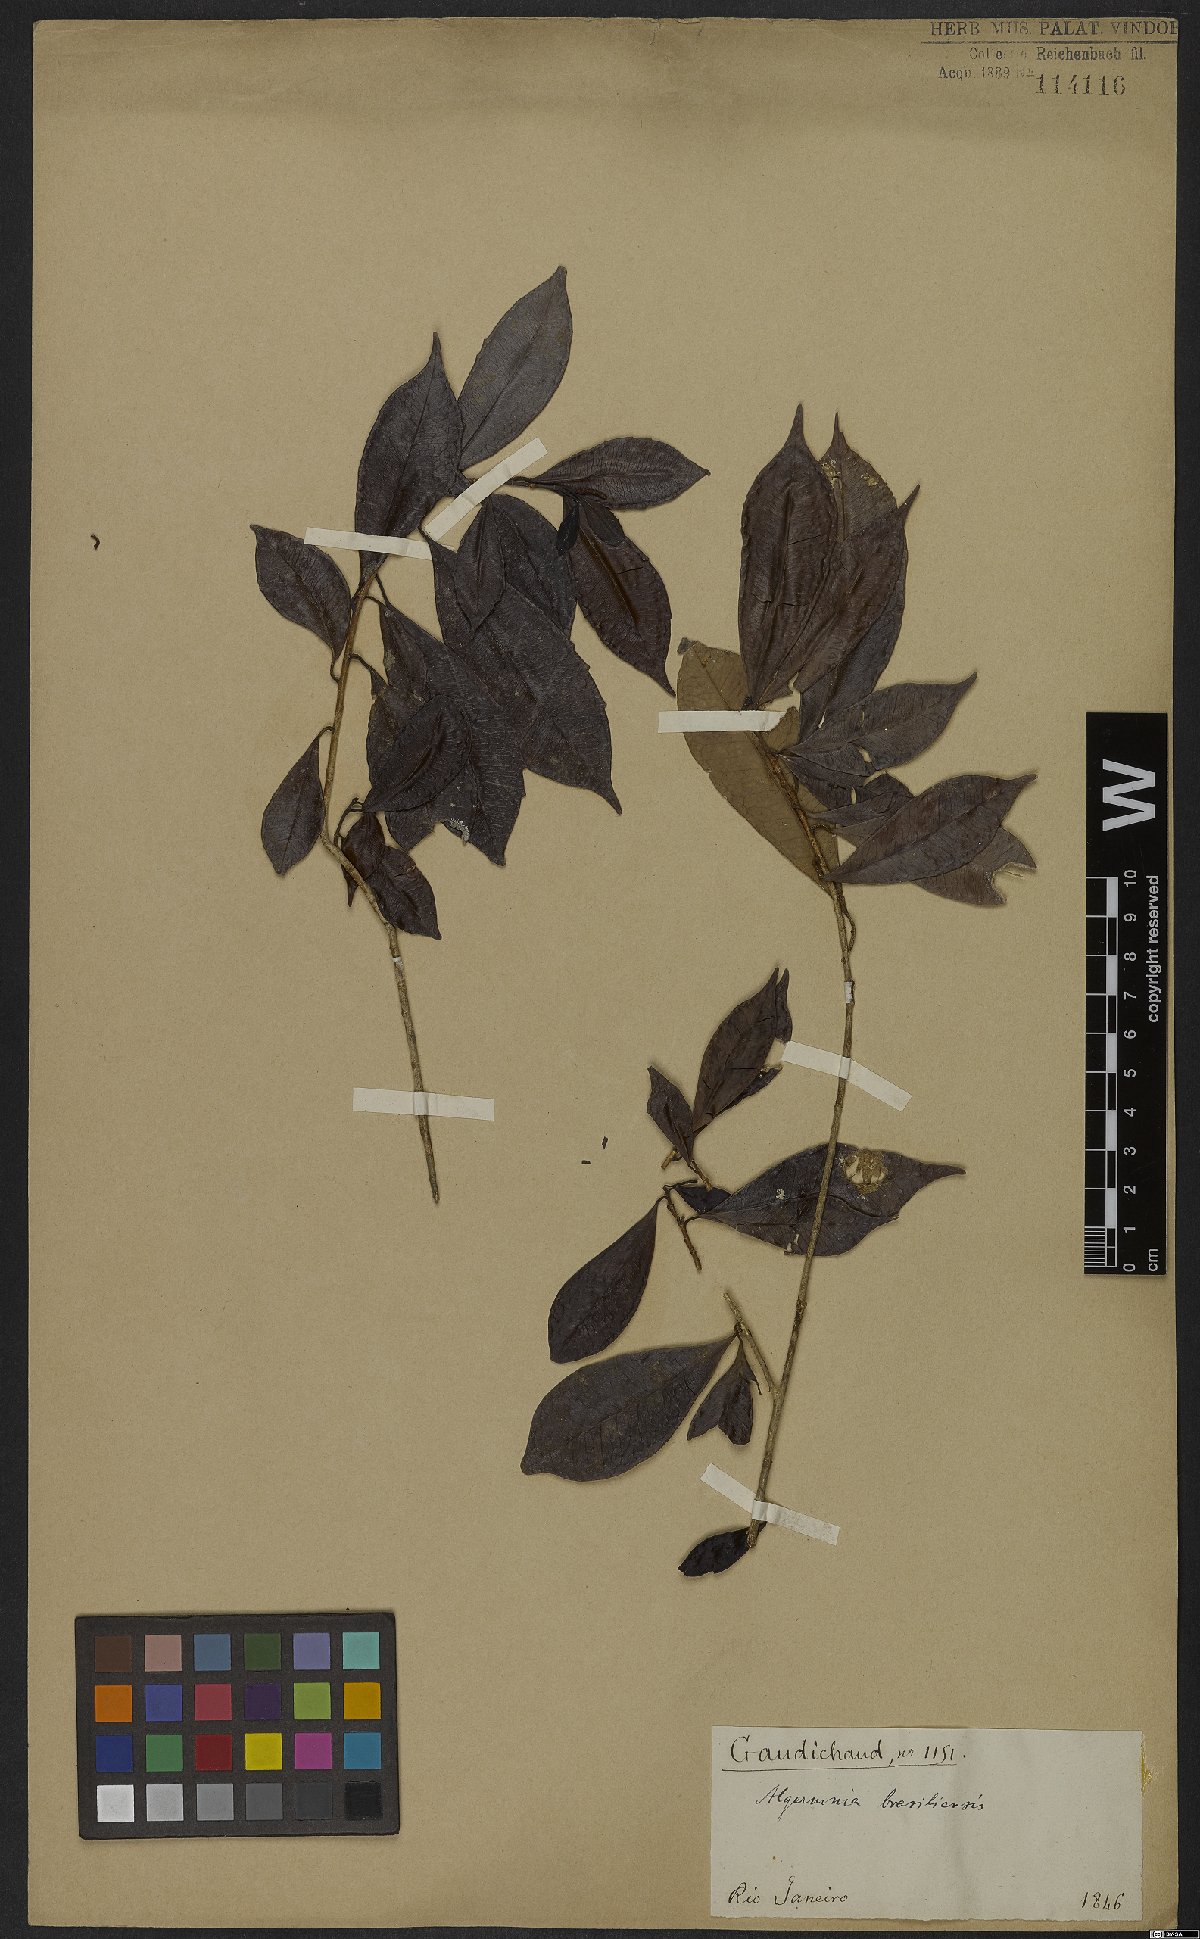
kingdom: Plantae
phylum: Tracheophyta
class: Magnoliopsida
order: Malpighiales
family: Euphorbiaceae
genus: Algernonia
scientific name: Algernonia brasiliensis
